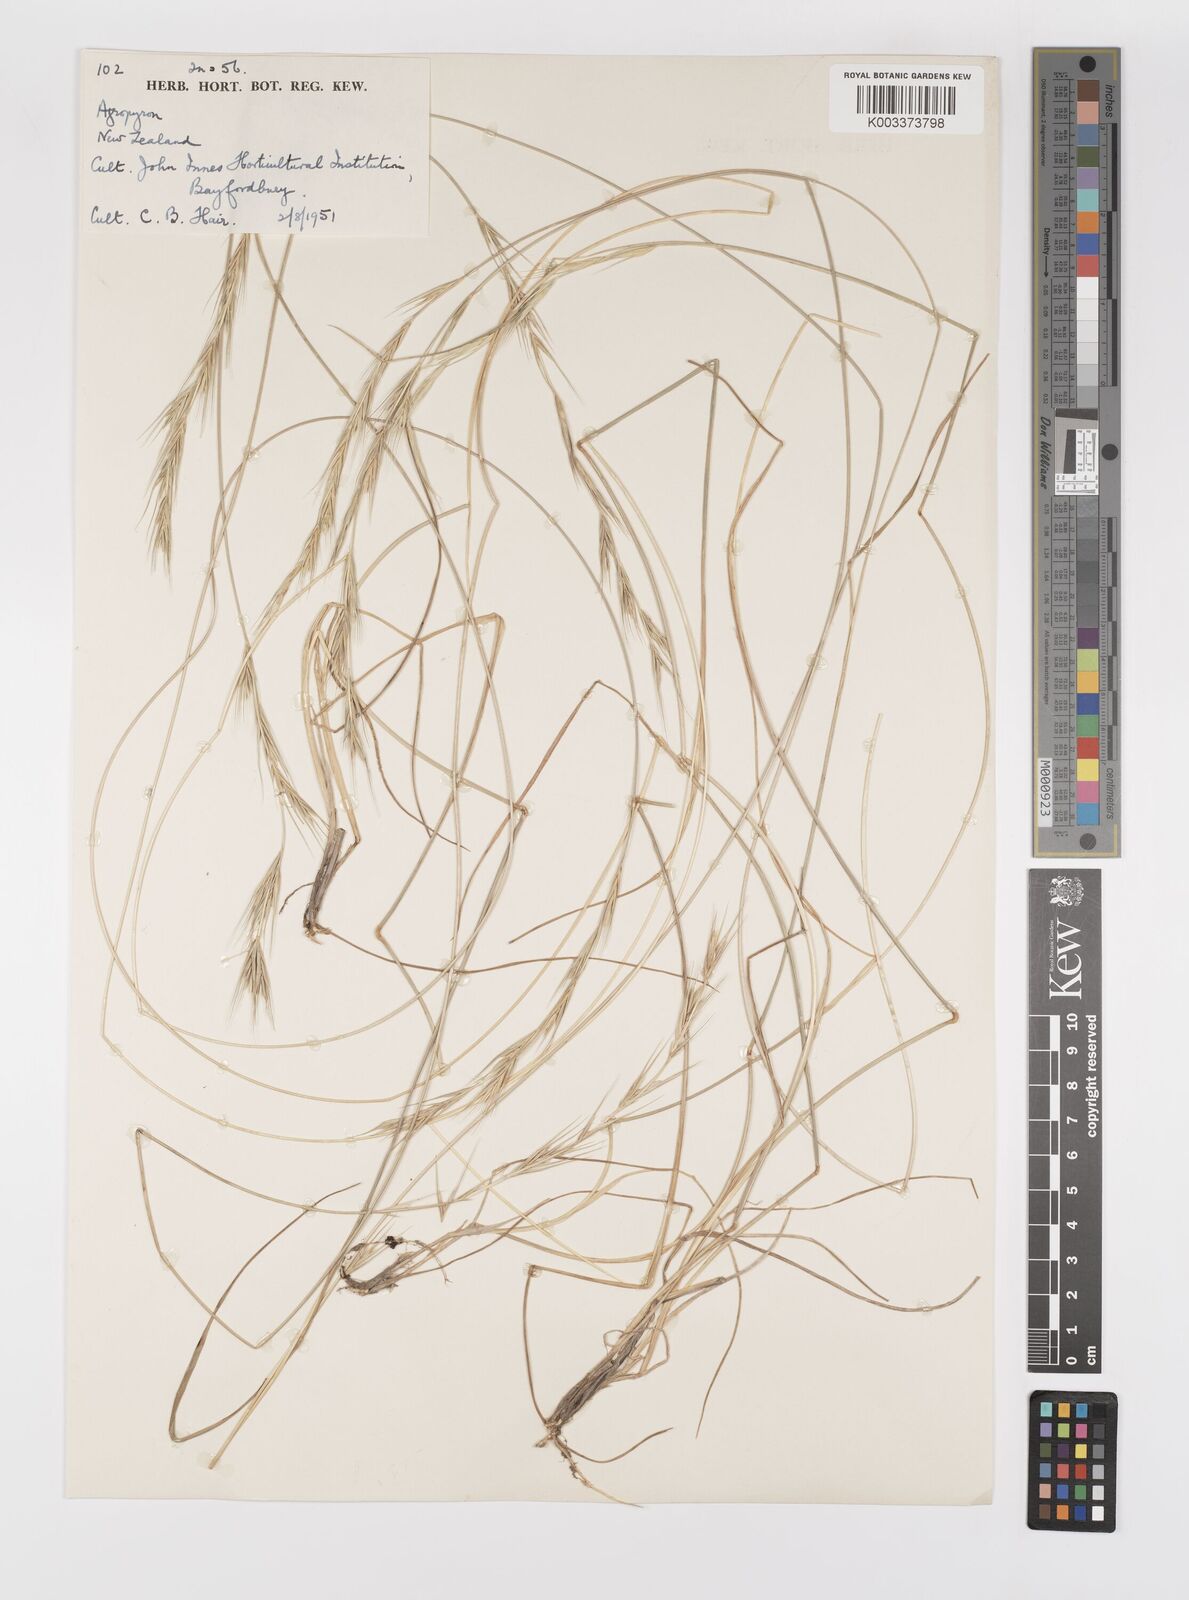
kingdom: Plantae
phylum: Tracheophyta
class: Liliopsida
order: Poales
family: Poaceae
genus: Elymus
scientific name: Elymus
